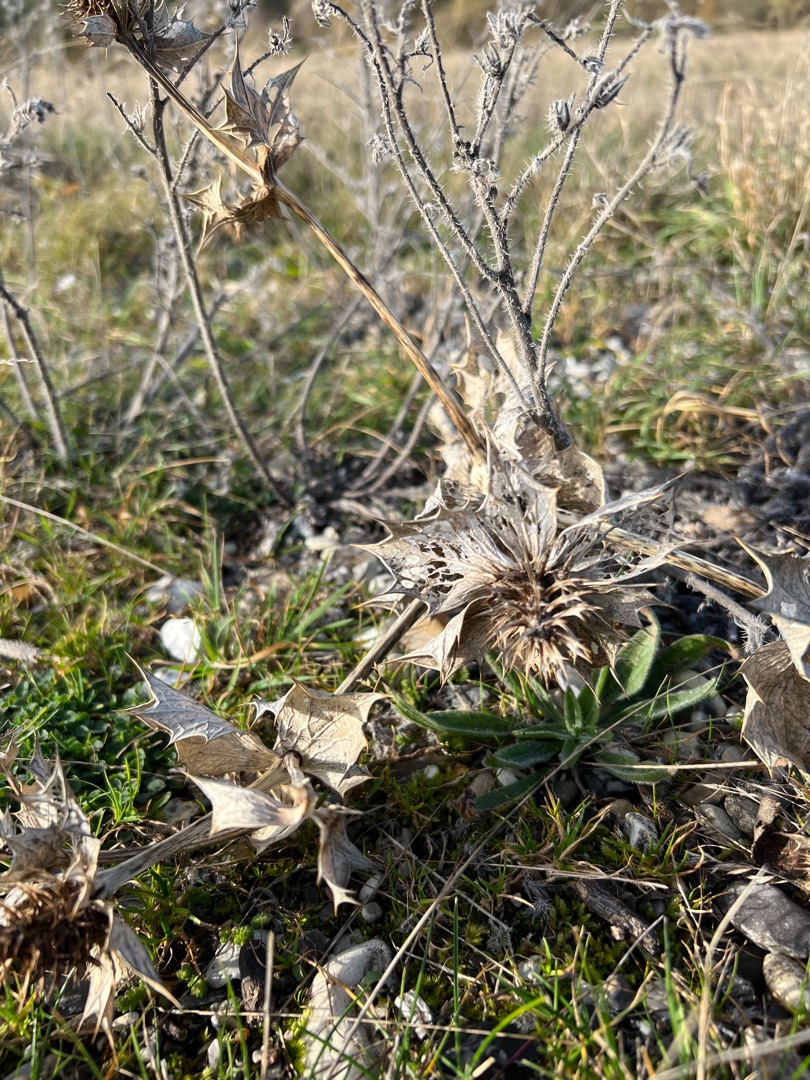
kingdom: Plantae
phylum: Tracheophyta
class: Magnoliopsida
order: Apiales
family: Apiaceae
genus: Eryngium
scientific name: Eryngium maritimum
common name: Strand-mandstro
